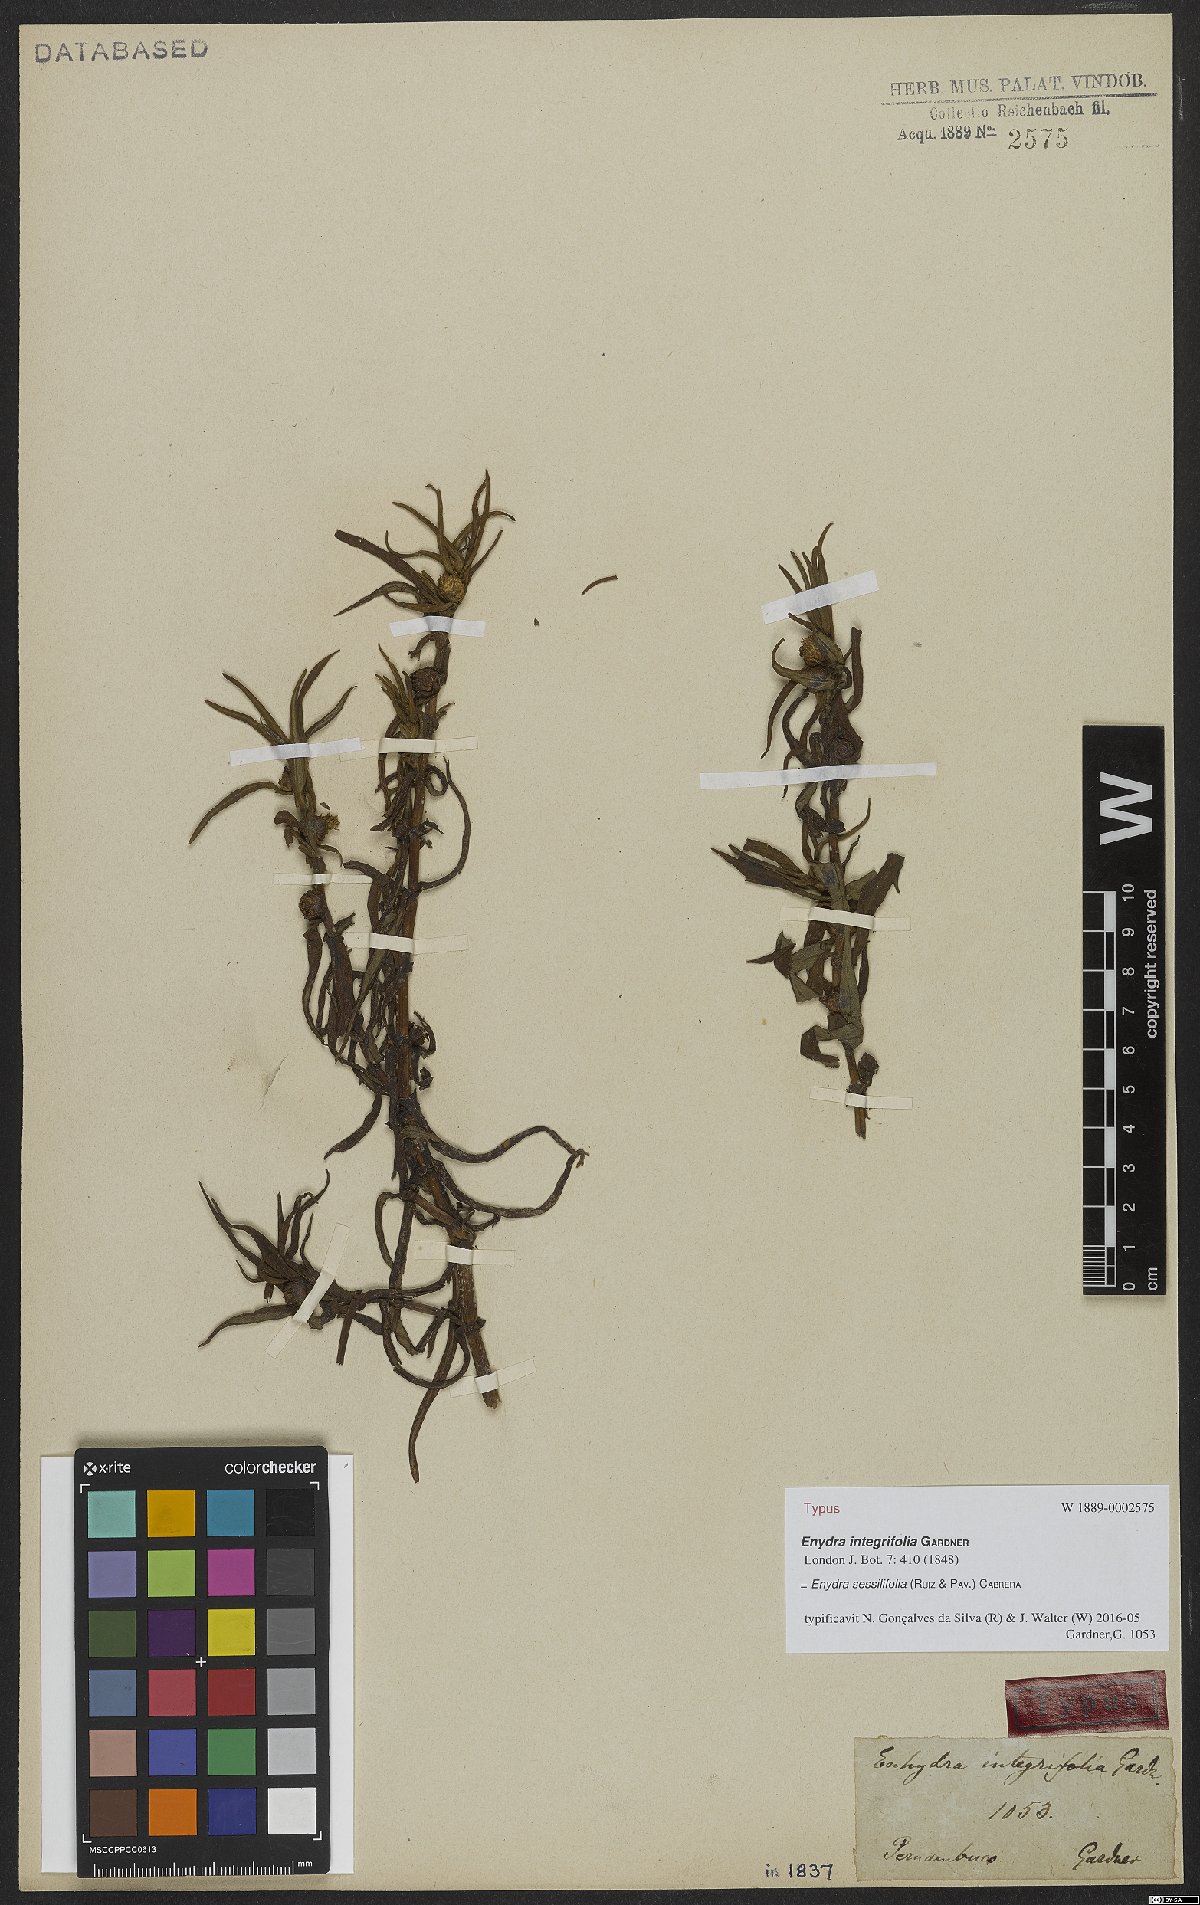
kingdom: Plantae
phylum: Tracheophyta
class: Magnoliopsida
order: Asterales
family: Asteraceae
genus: Enydra
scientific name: Enydra sessilifolia
